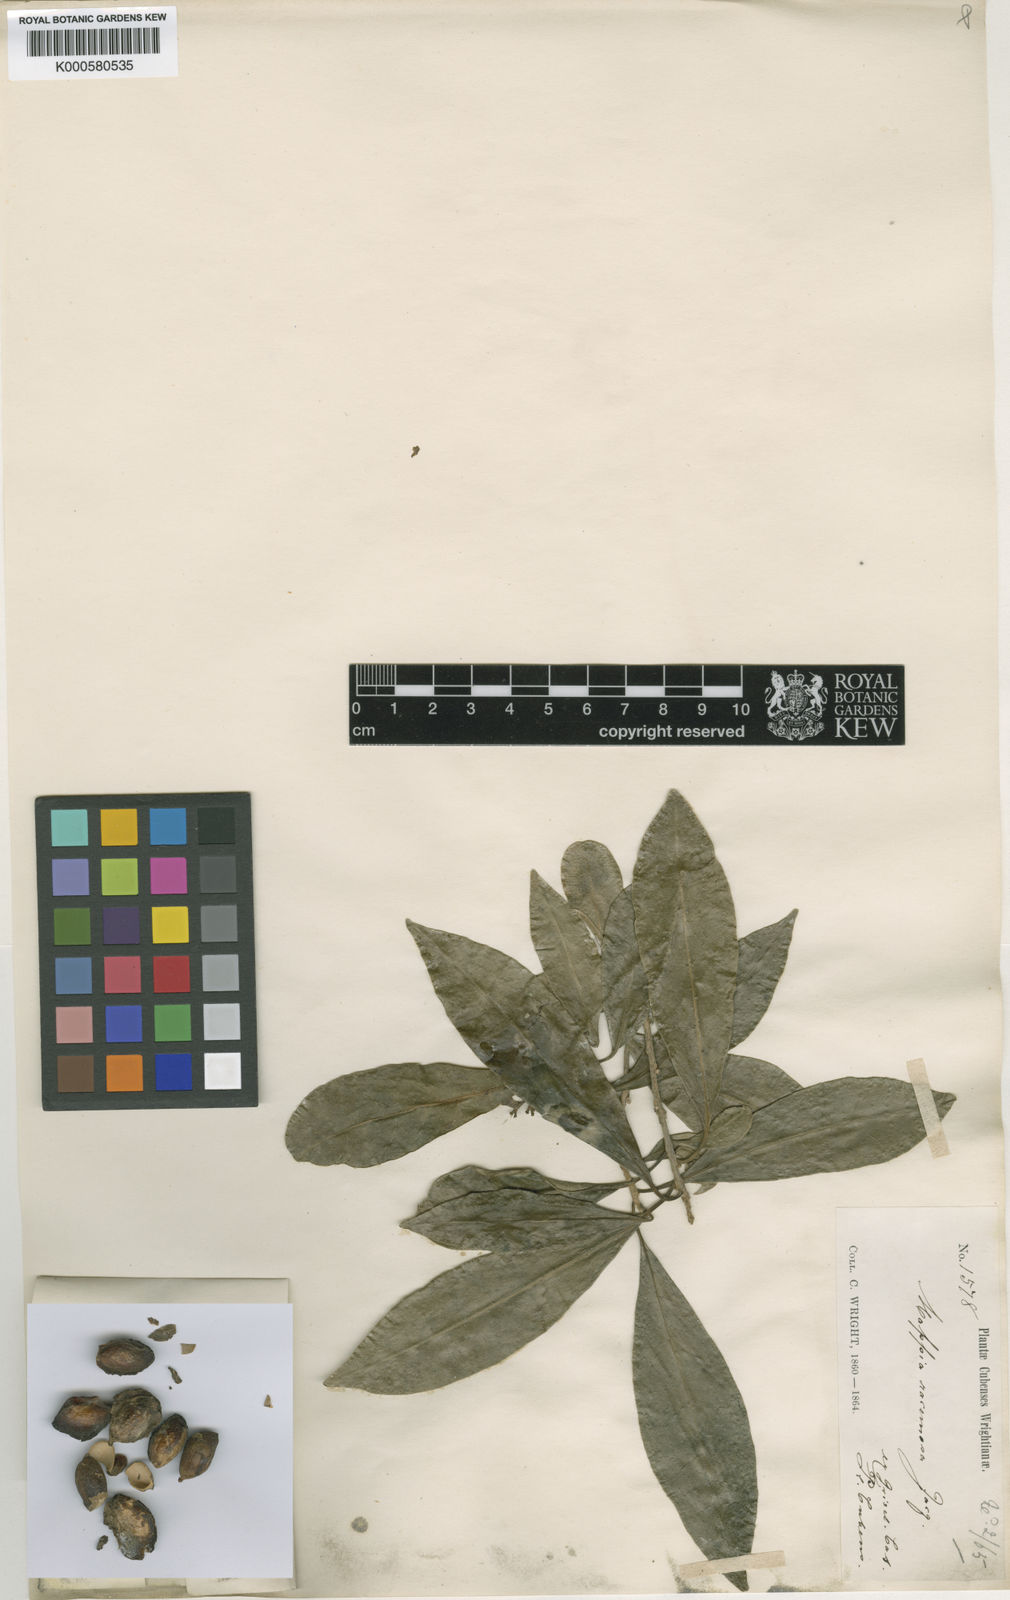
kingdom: Plantae
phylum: Tracheophyta
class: Magnoliopsida
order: Icacinales
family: Icacinaceae
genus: Mappia
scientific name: Mappia racemosa
